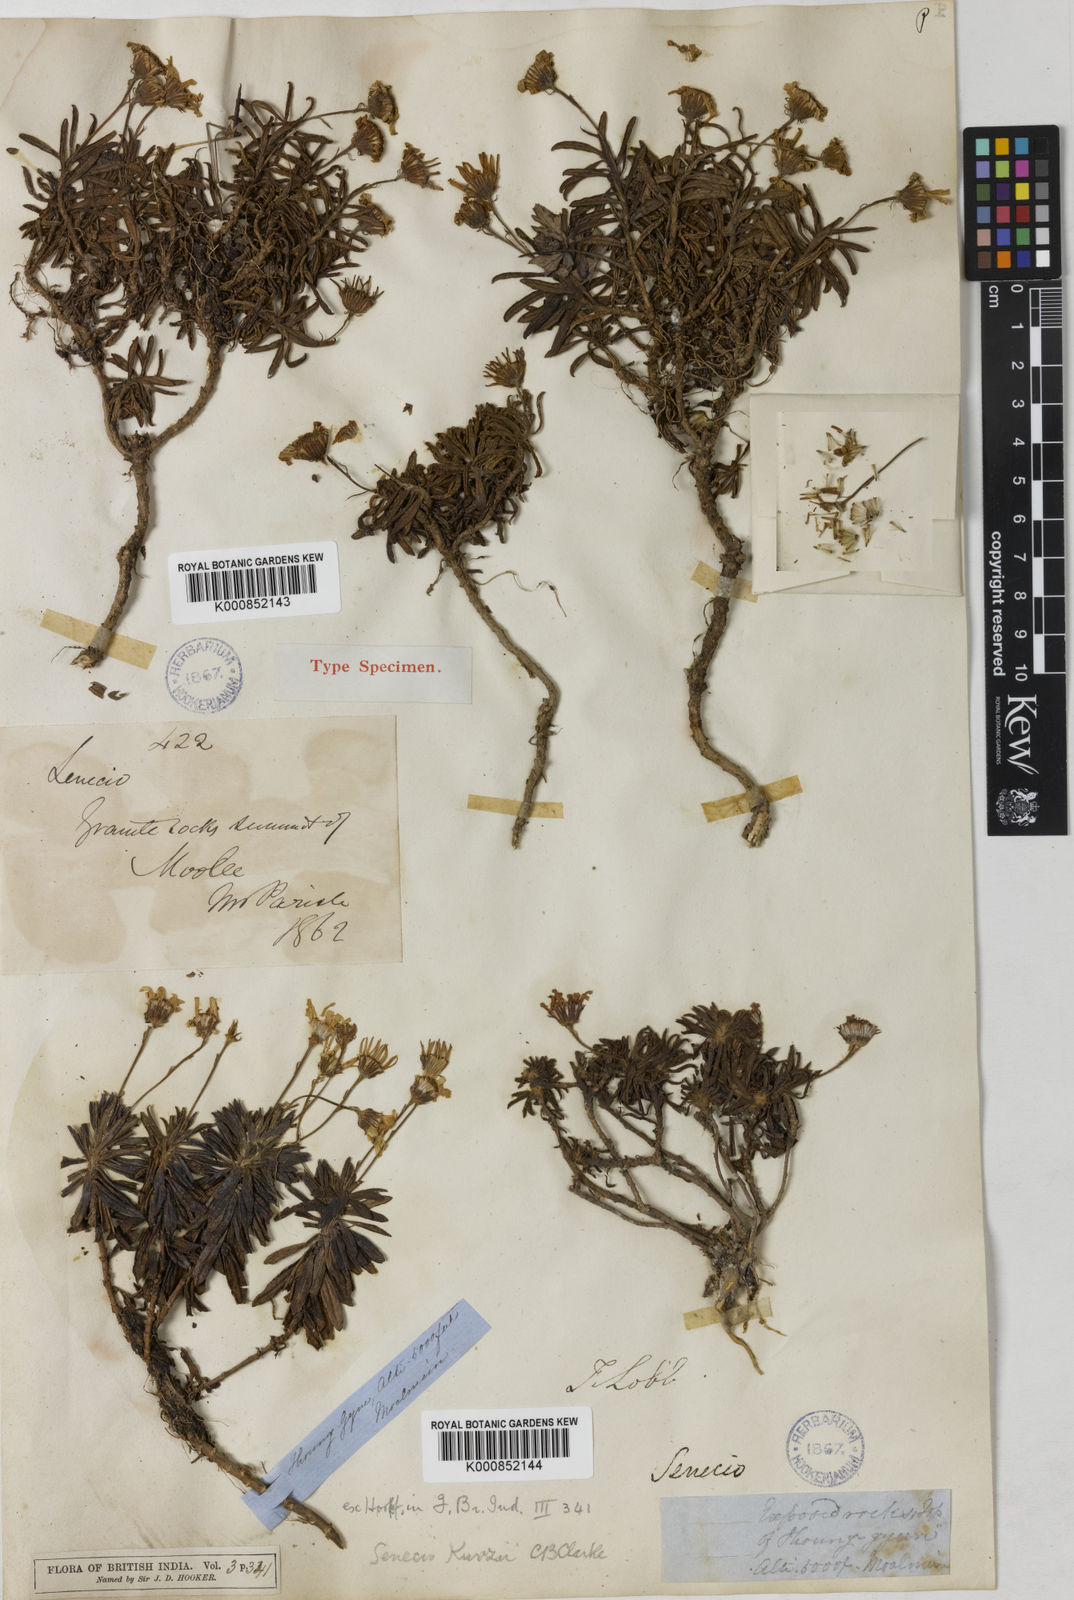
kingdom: Plantae
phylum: Tracheophyta
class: Magnoliopsida
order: Asterales
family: Asteraceae
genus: Senecio
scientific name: Senecio kurzii
